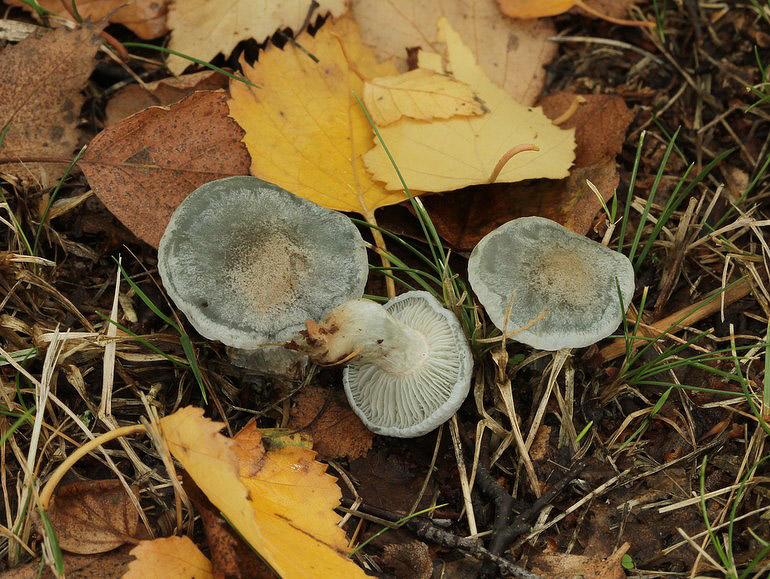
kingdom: Fungi
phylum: Basidiomycota
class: Agaricomycetes
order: Agaricales
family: Tricholomataceae
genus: Clitocybe
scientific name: Clitocybe odora
